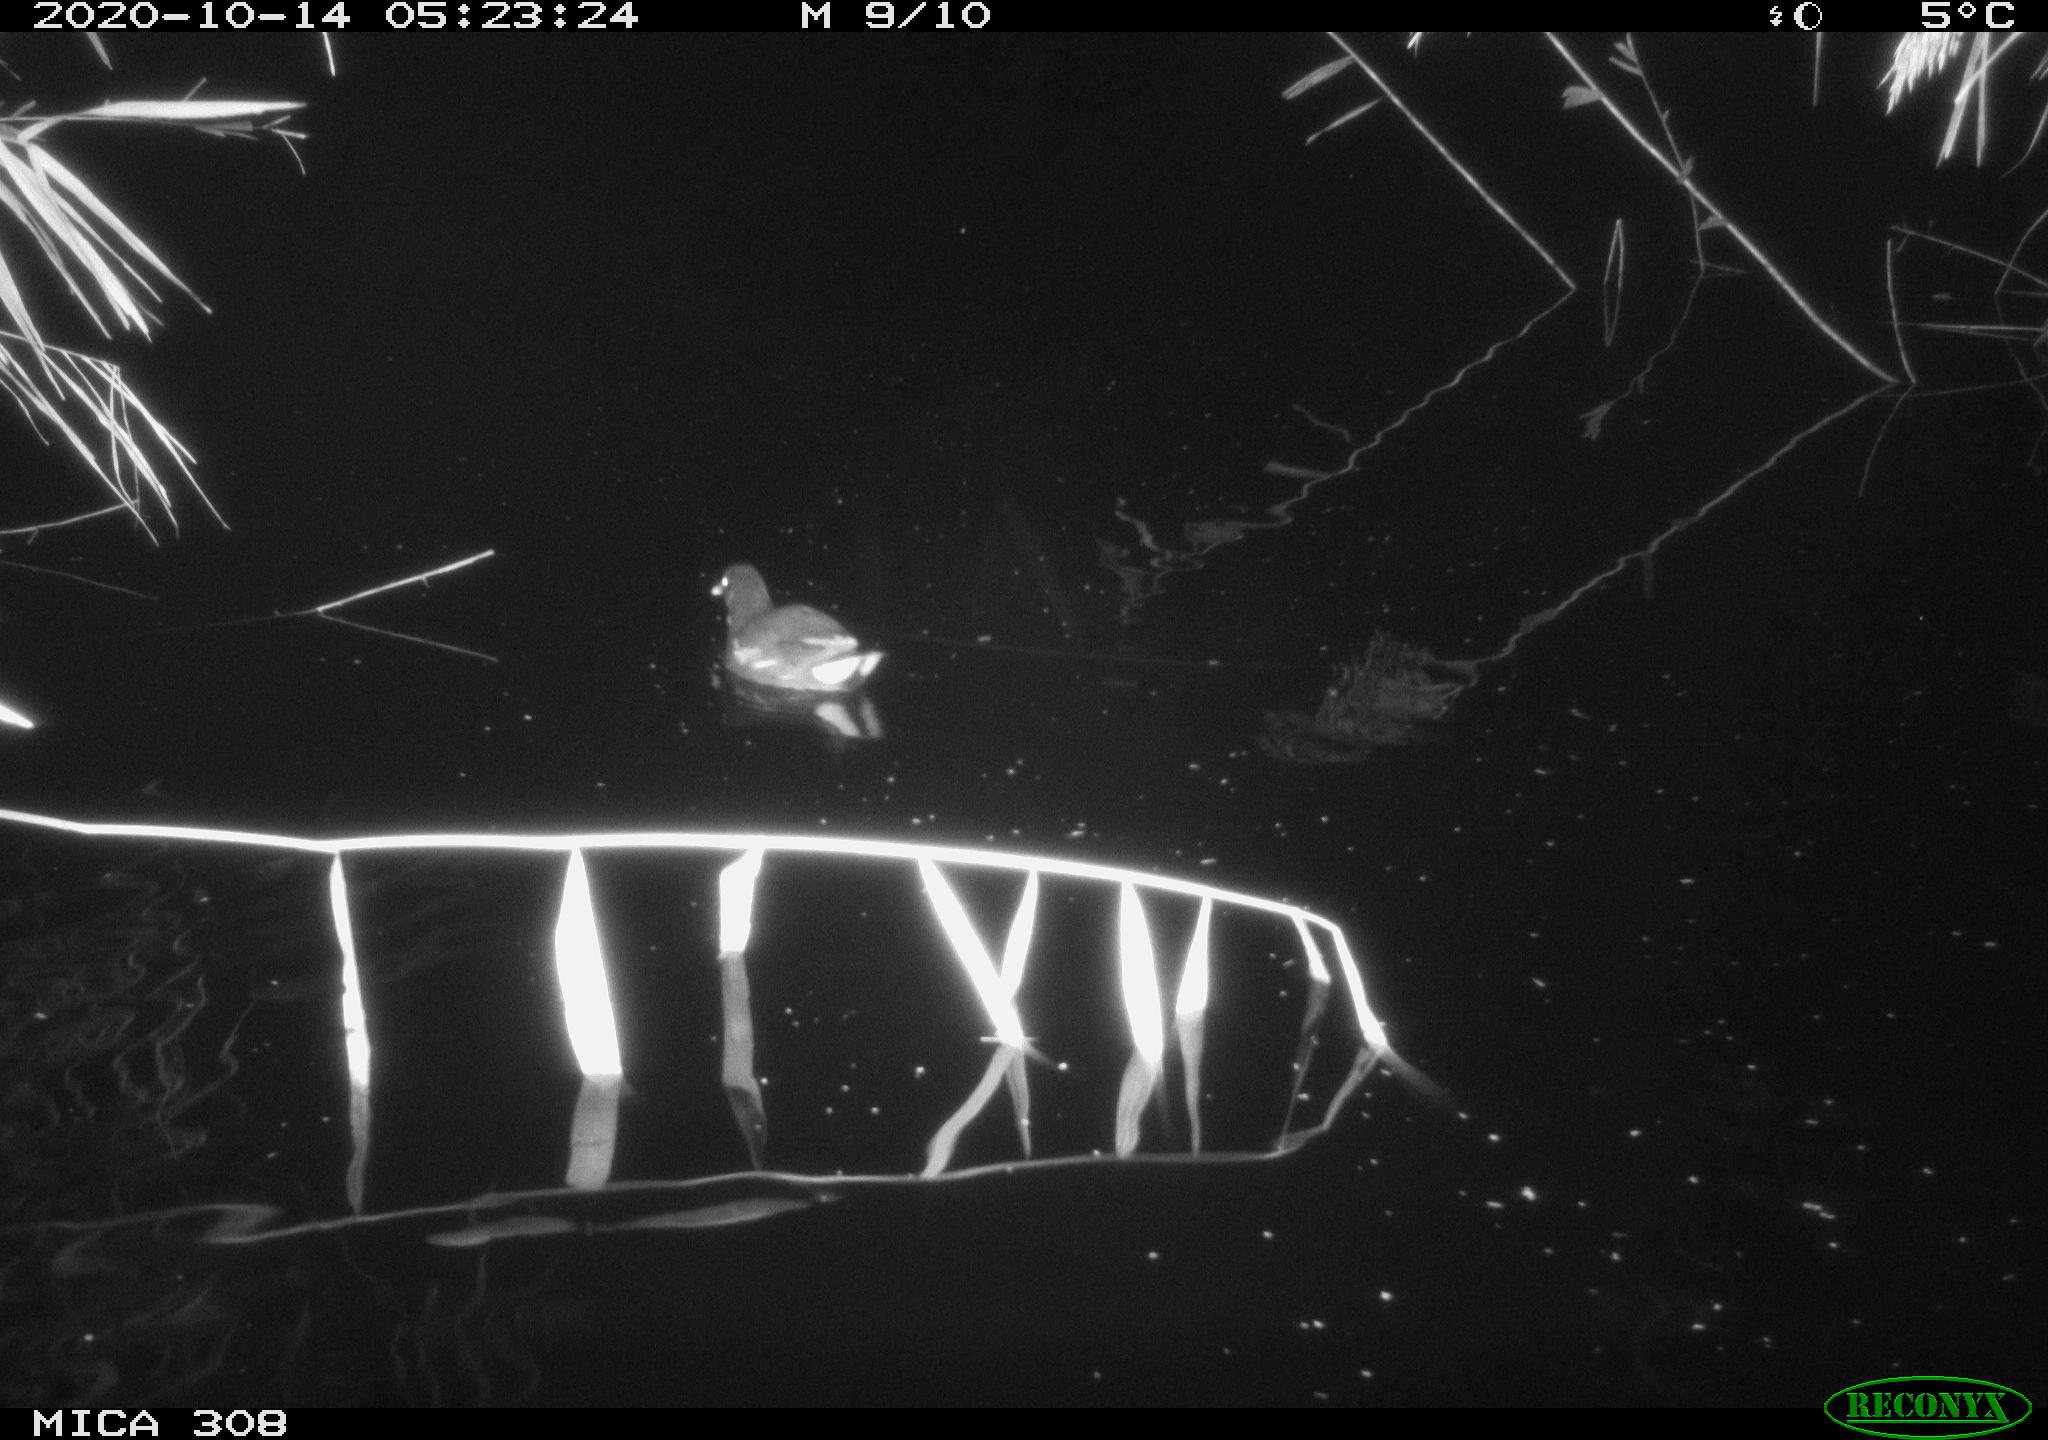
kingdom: Animalia
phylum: Chordata
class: Aves
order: Gruiformes
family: Rallidae
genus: Gallinula
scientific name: Gallinula chloropus
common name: Common moorhen
